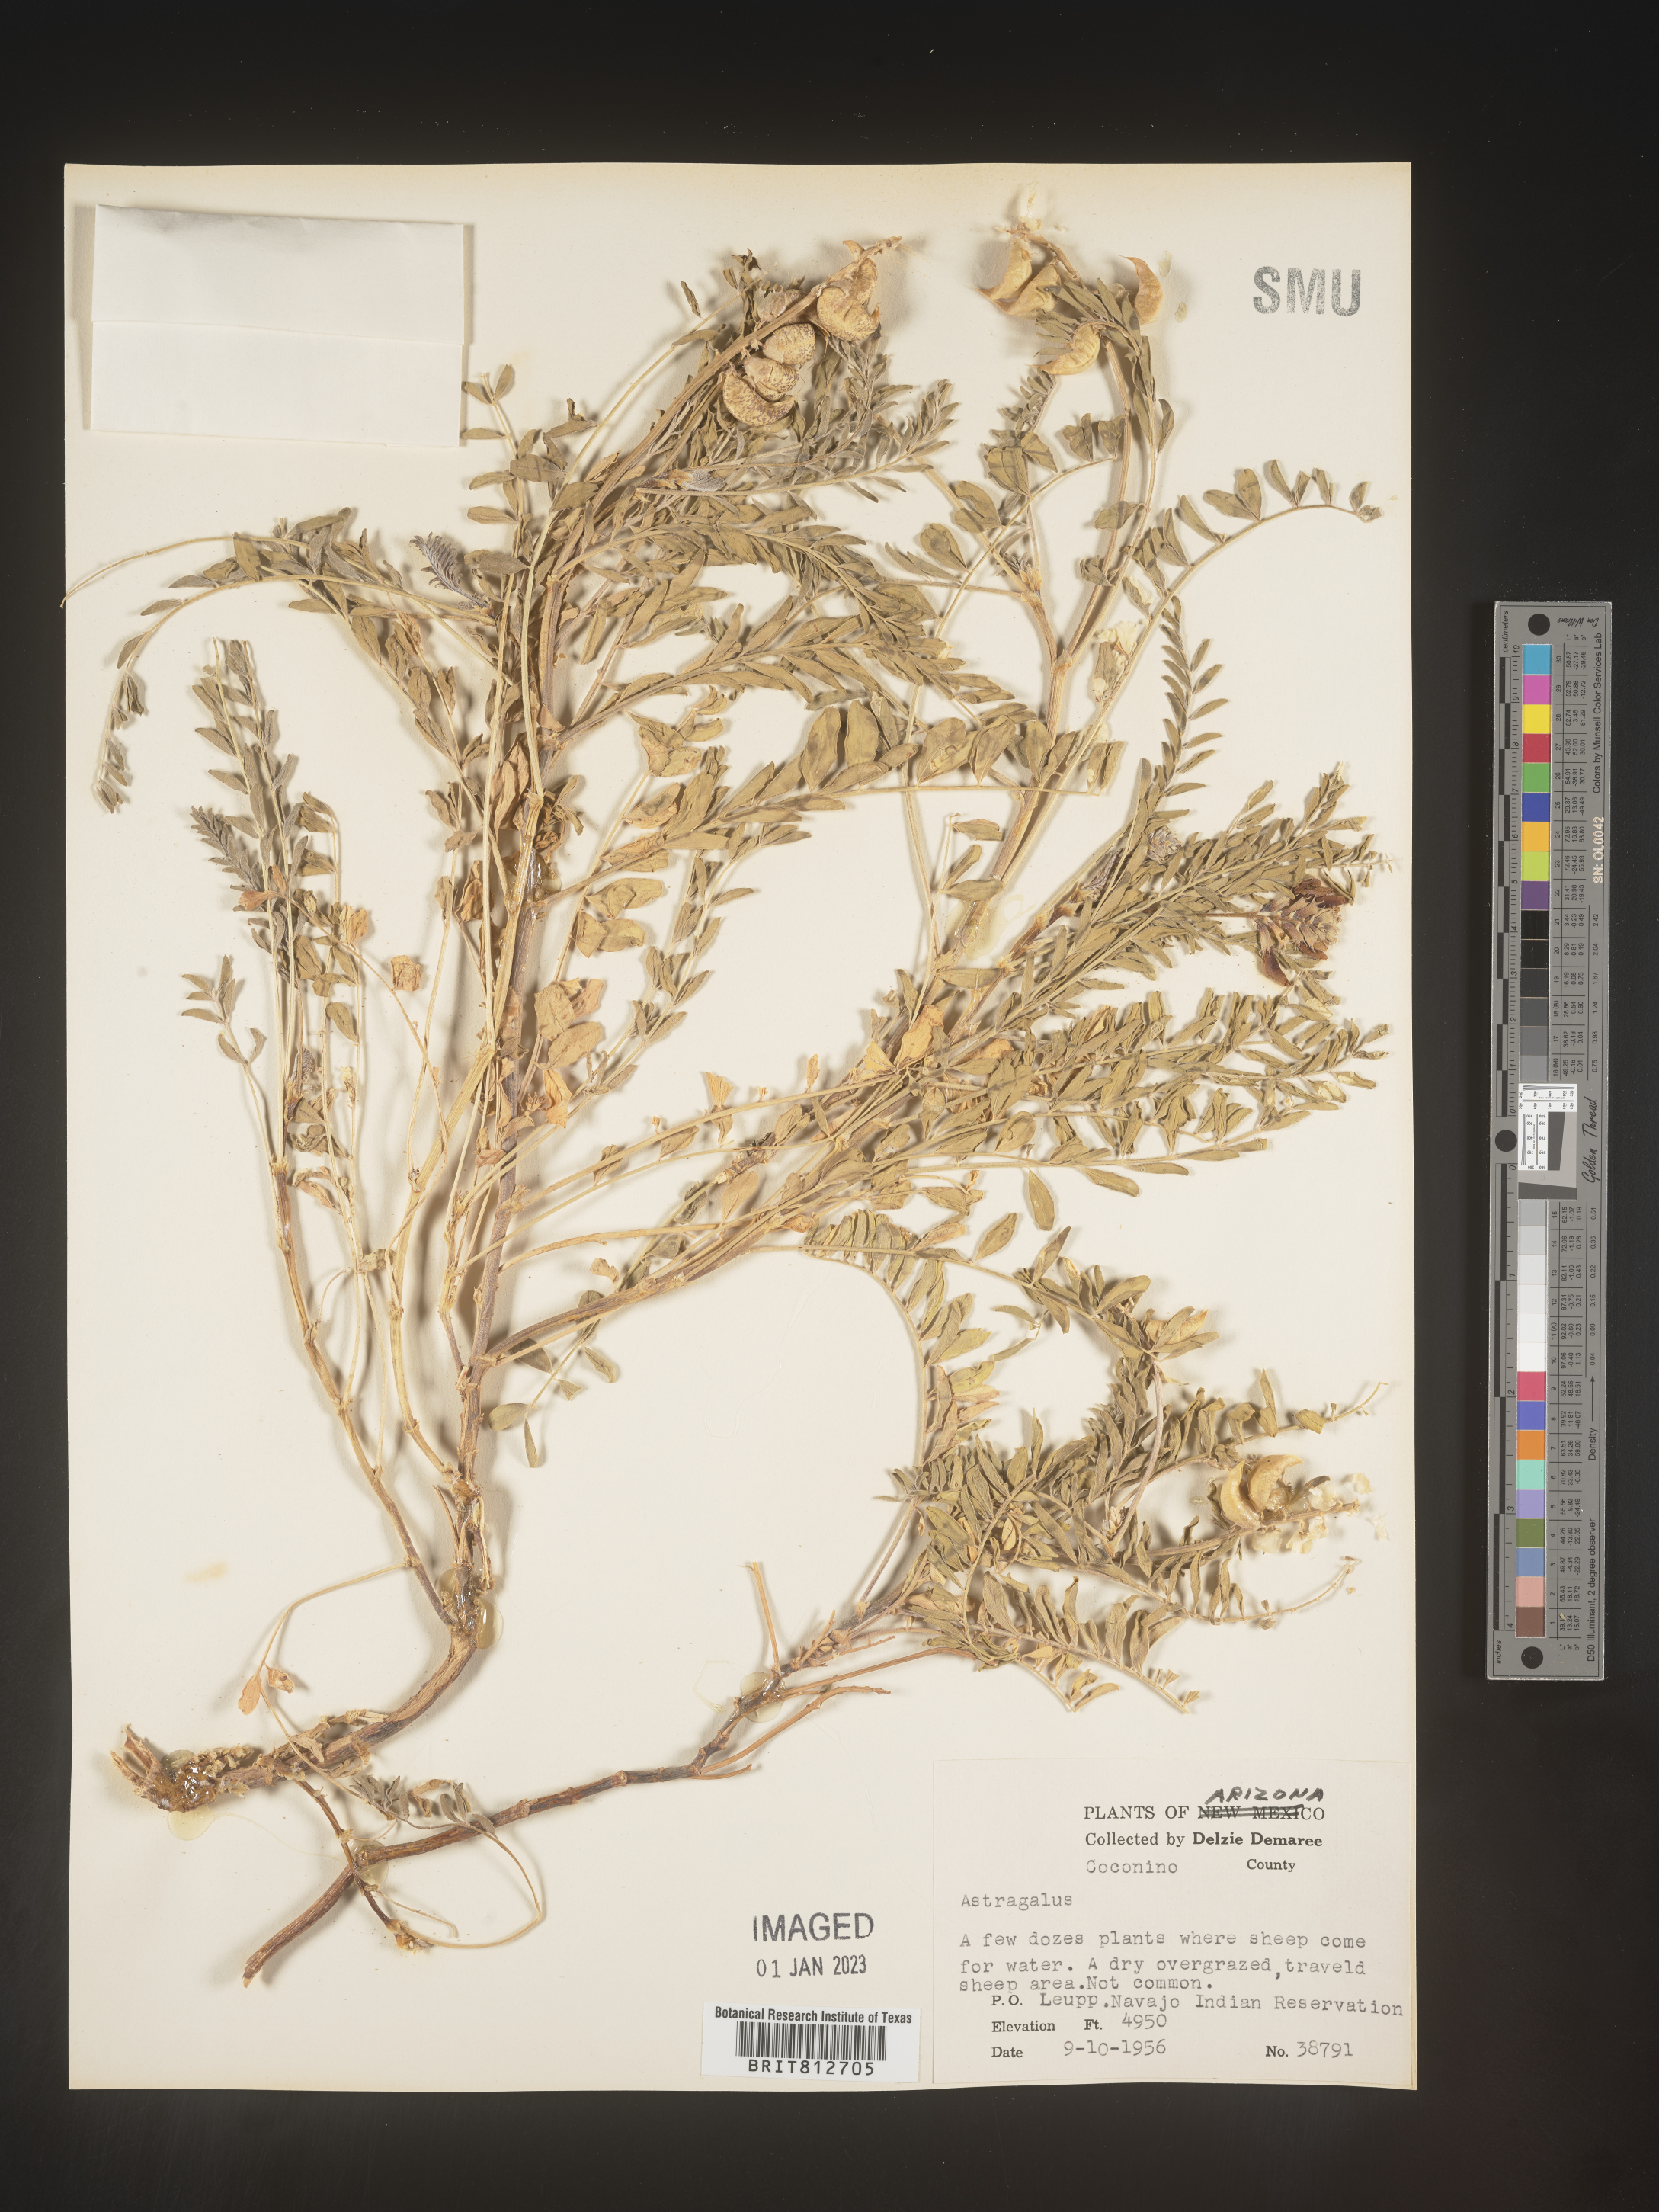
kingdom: Plantae
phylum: Tracheophyta
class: Magnoliopsida
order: Fabales
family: Fabaceae
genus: Astragalus
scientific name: Astragalus
